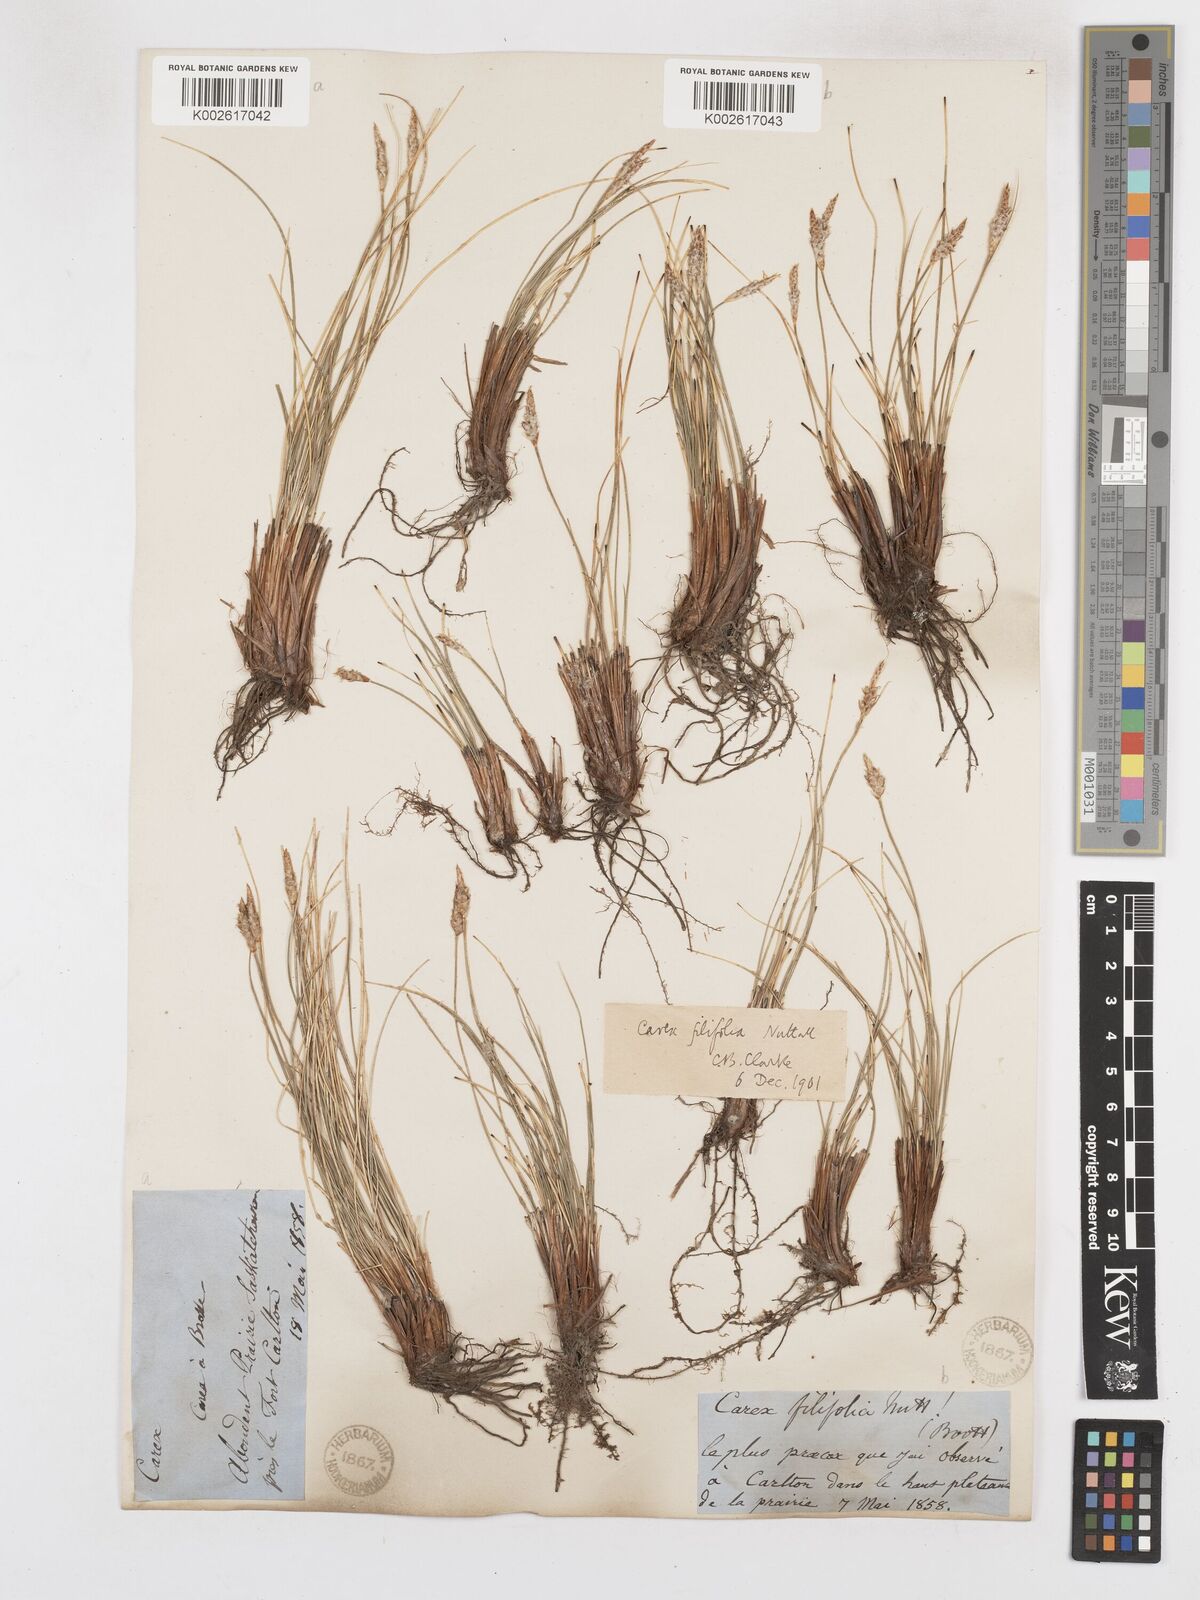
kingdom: Plantae
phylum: Tracheophyta
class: Liliopsida
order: Poales
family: Cyperaceae
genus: Carex
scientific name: Carex filifolia
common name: Threadleaf sedge
